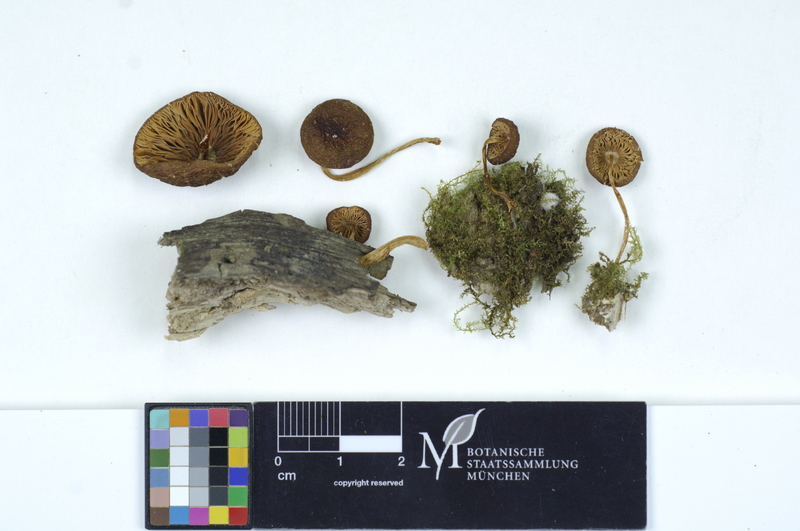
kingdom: Plantae
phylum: Tracheophyta
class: Magnoliopsida
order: Lamiales
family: Oleaceae
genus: Fraxinus
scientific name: Fraxinus
